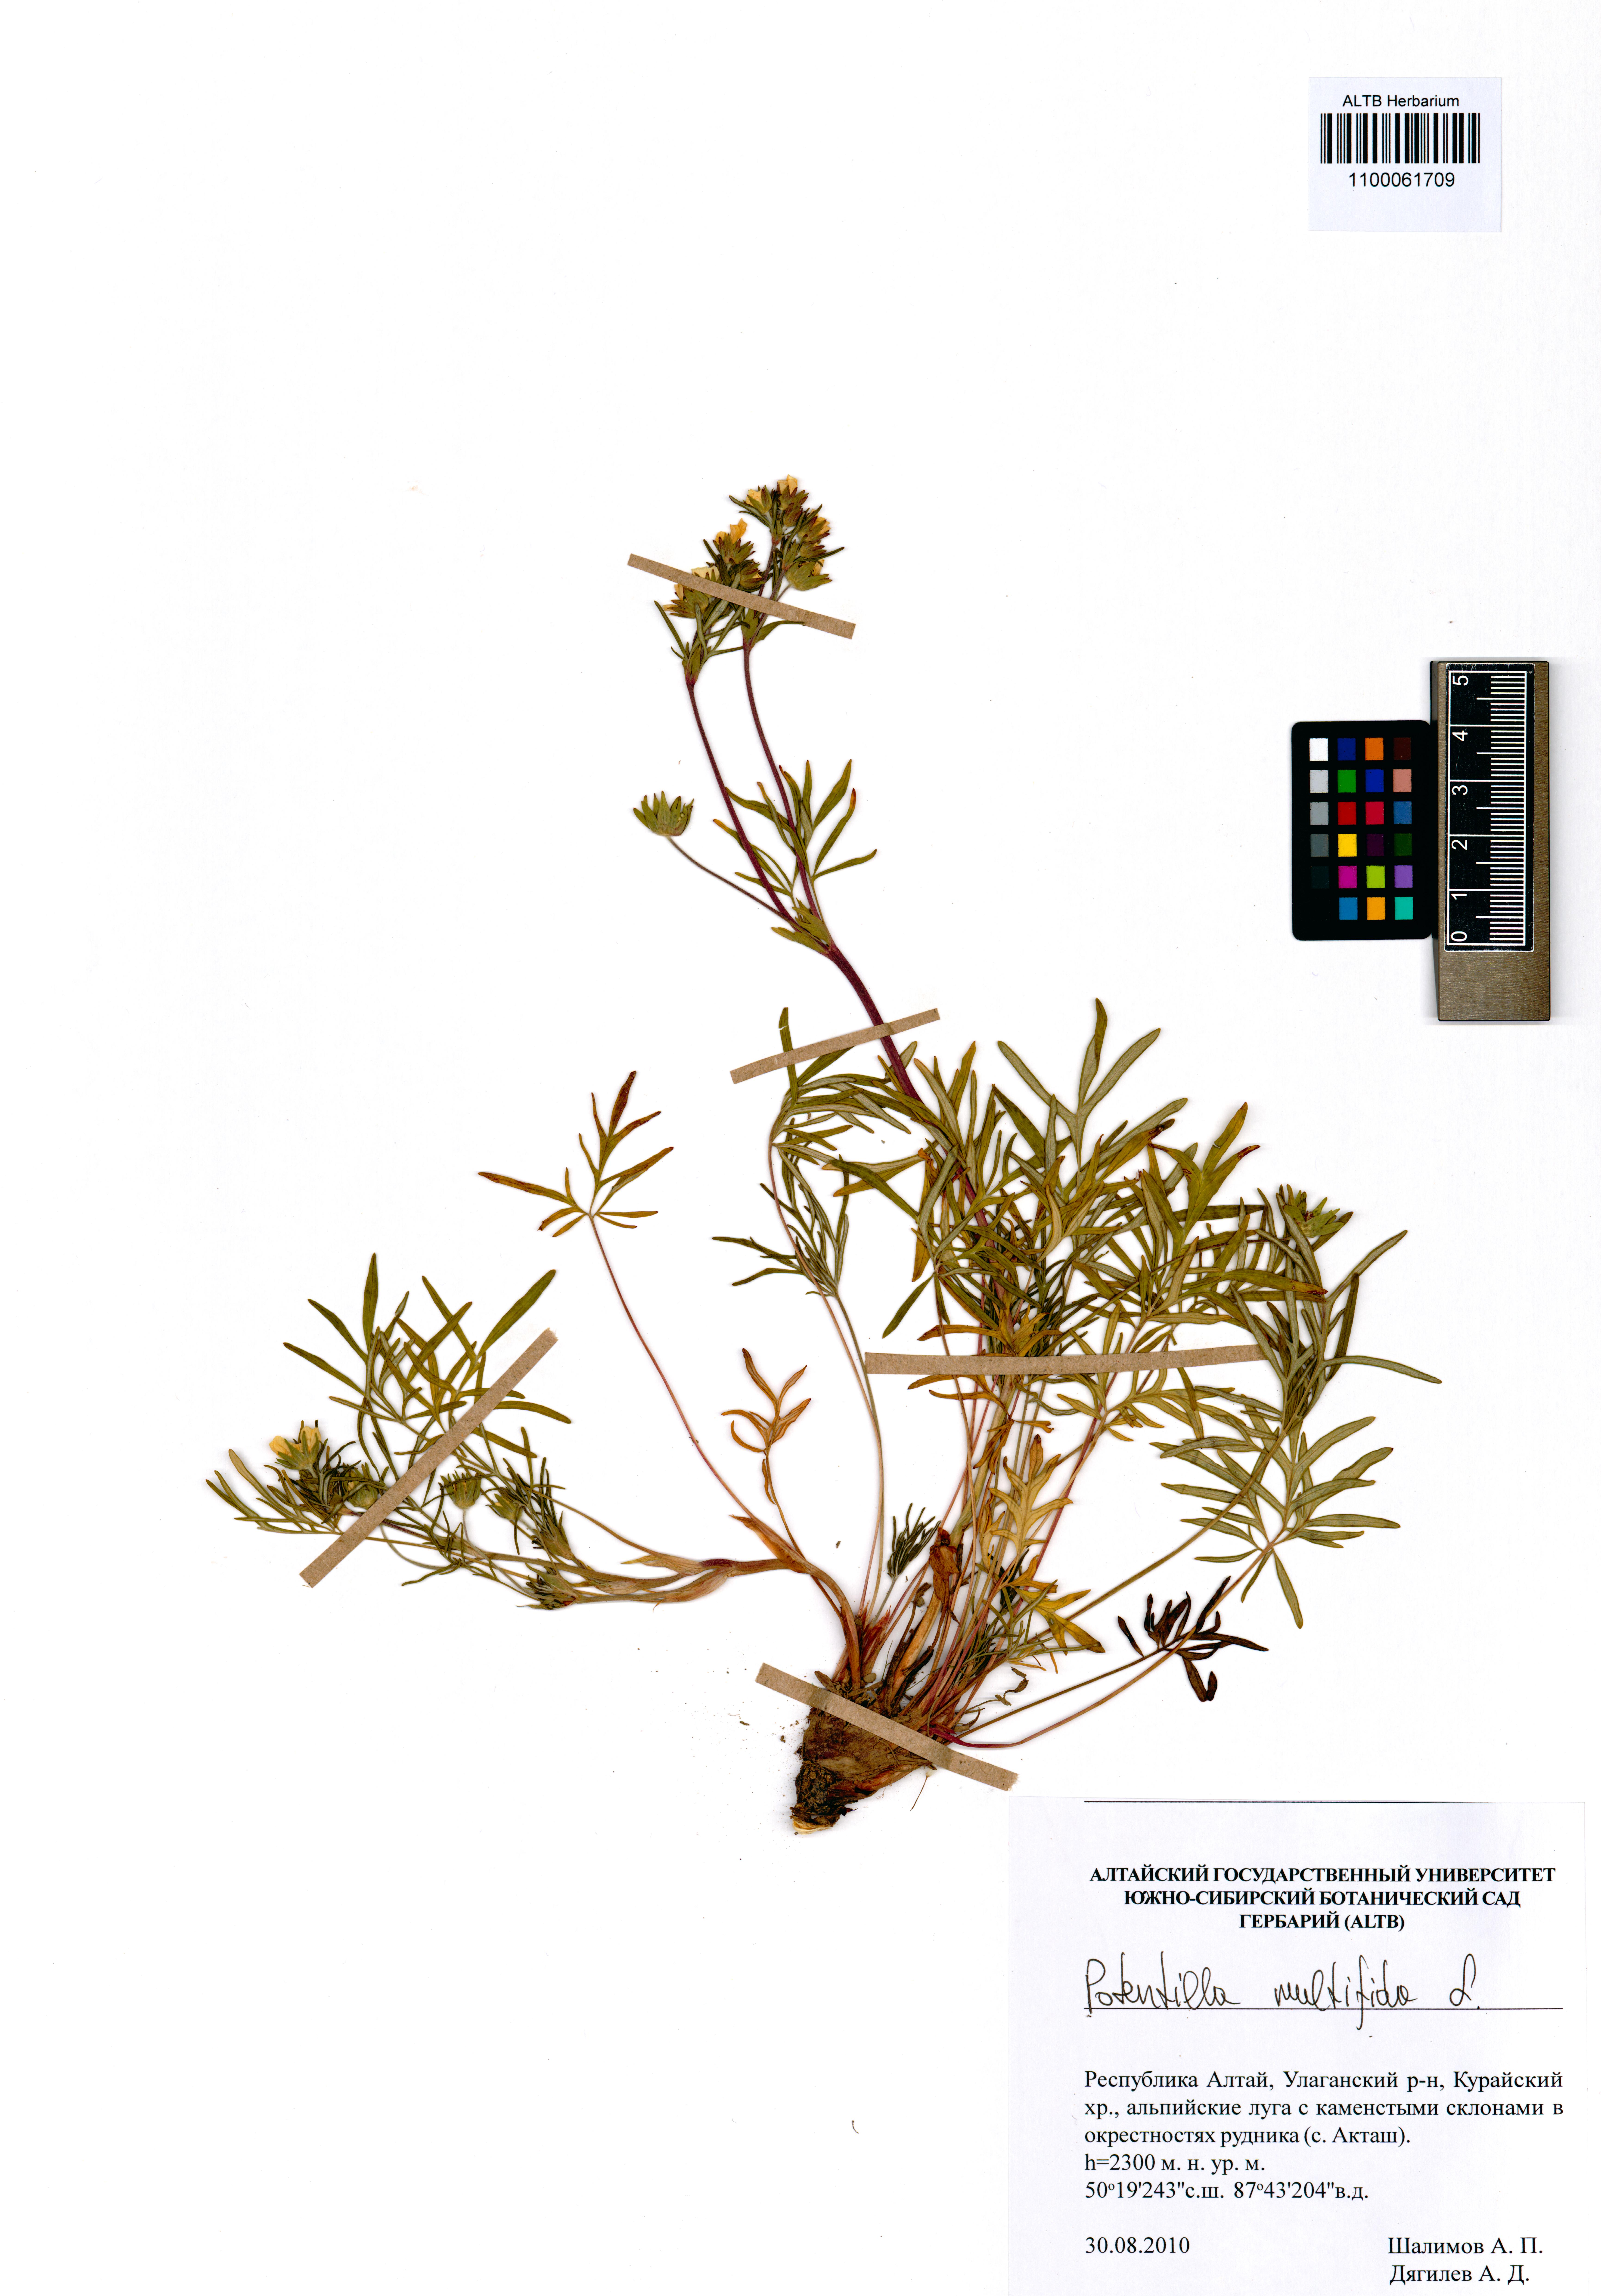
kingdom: Plantae
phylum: Tracheophyta
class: Magnoliopsida
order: Rosales
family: Rosaceae
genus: Potentilla
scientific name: Potentilla multifida
